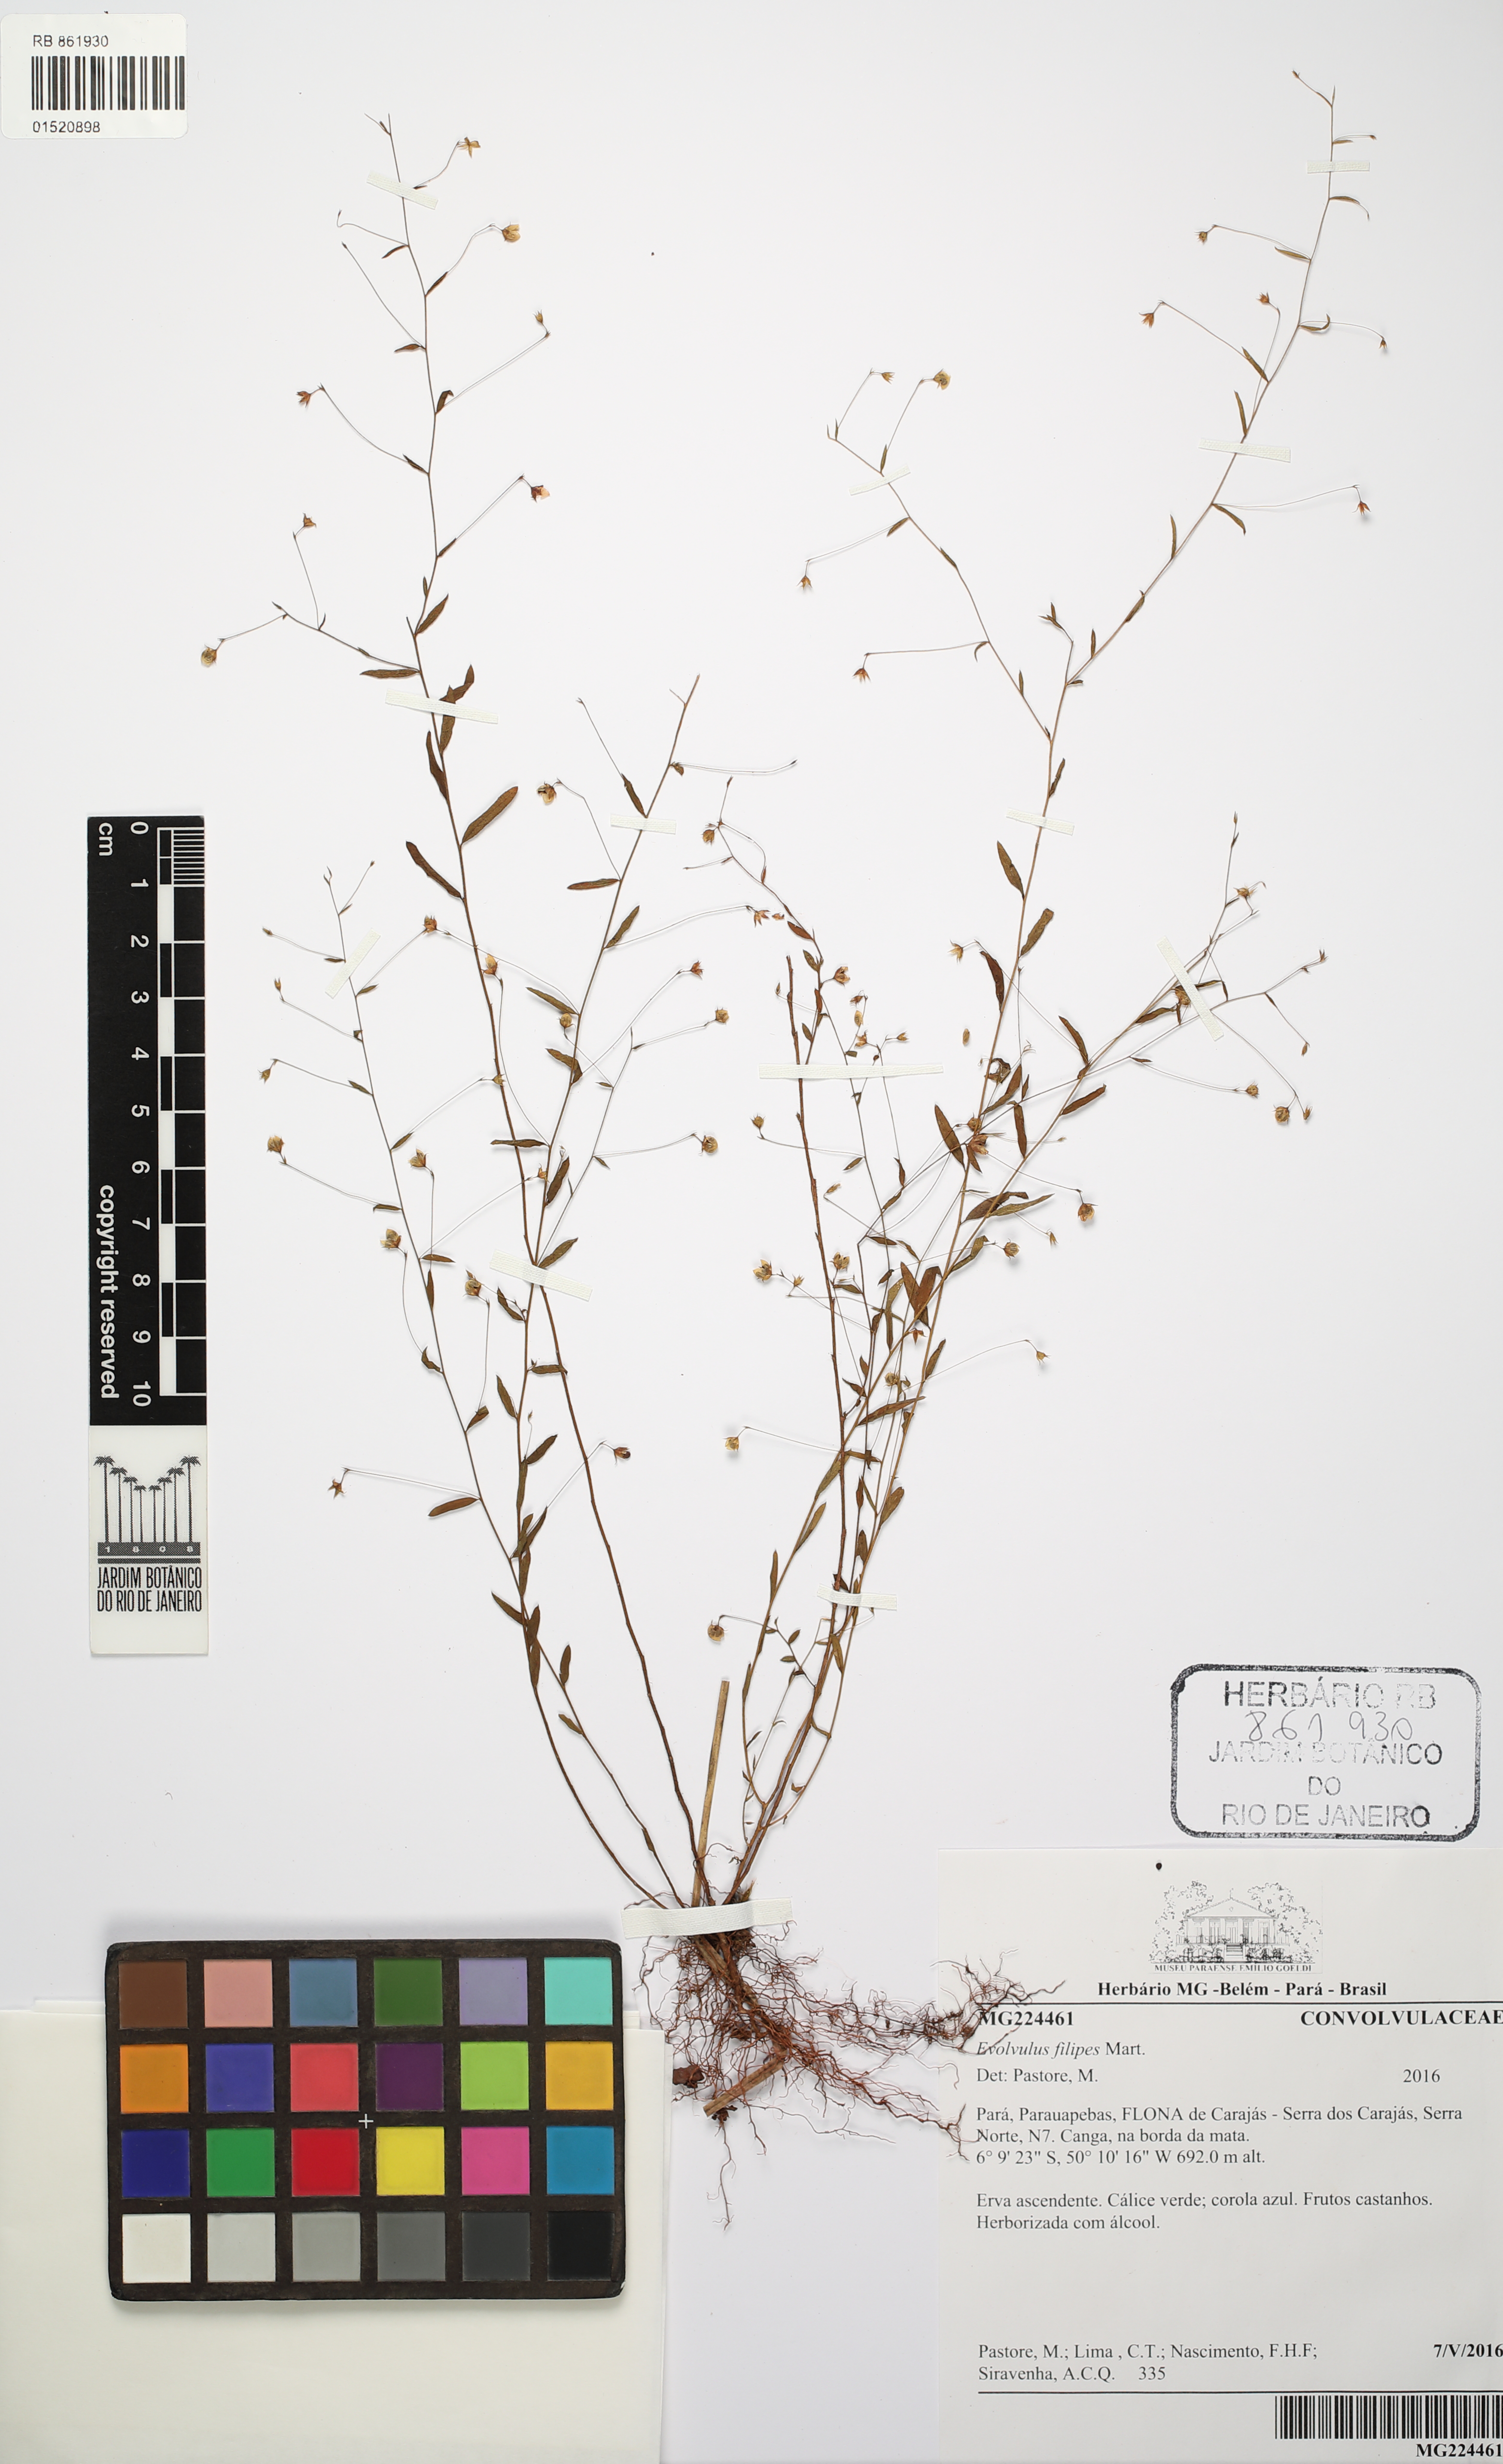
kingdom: Plantae
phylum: Tracheophyta
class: Magnoliopsida
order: Solanales
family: Convolvulaceae
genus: Evolvulus
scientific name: Evolvulus filipes
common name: Maryland dwarf morning-glory
